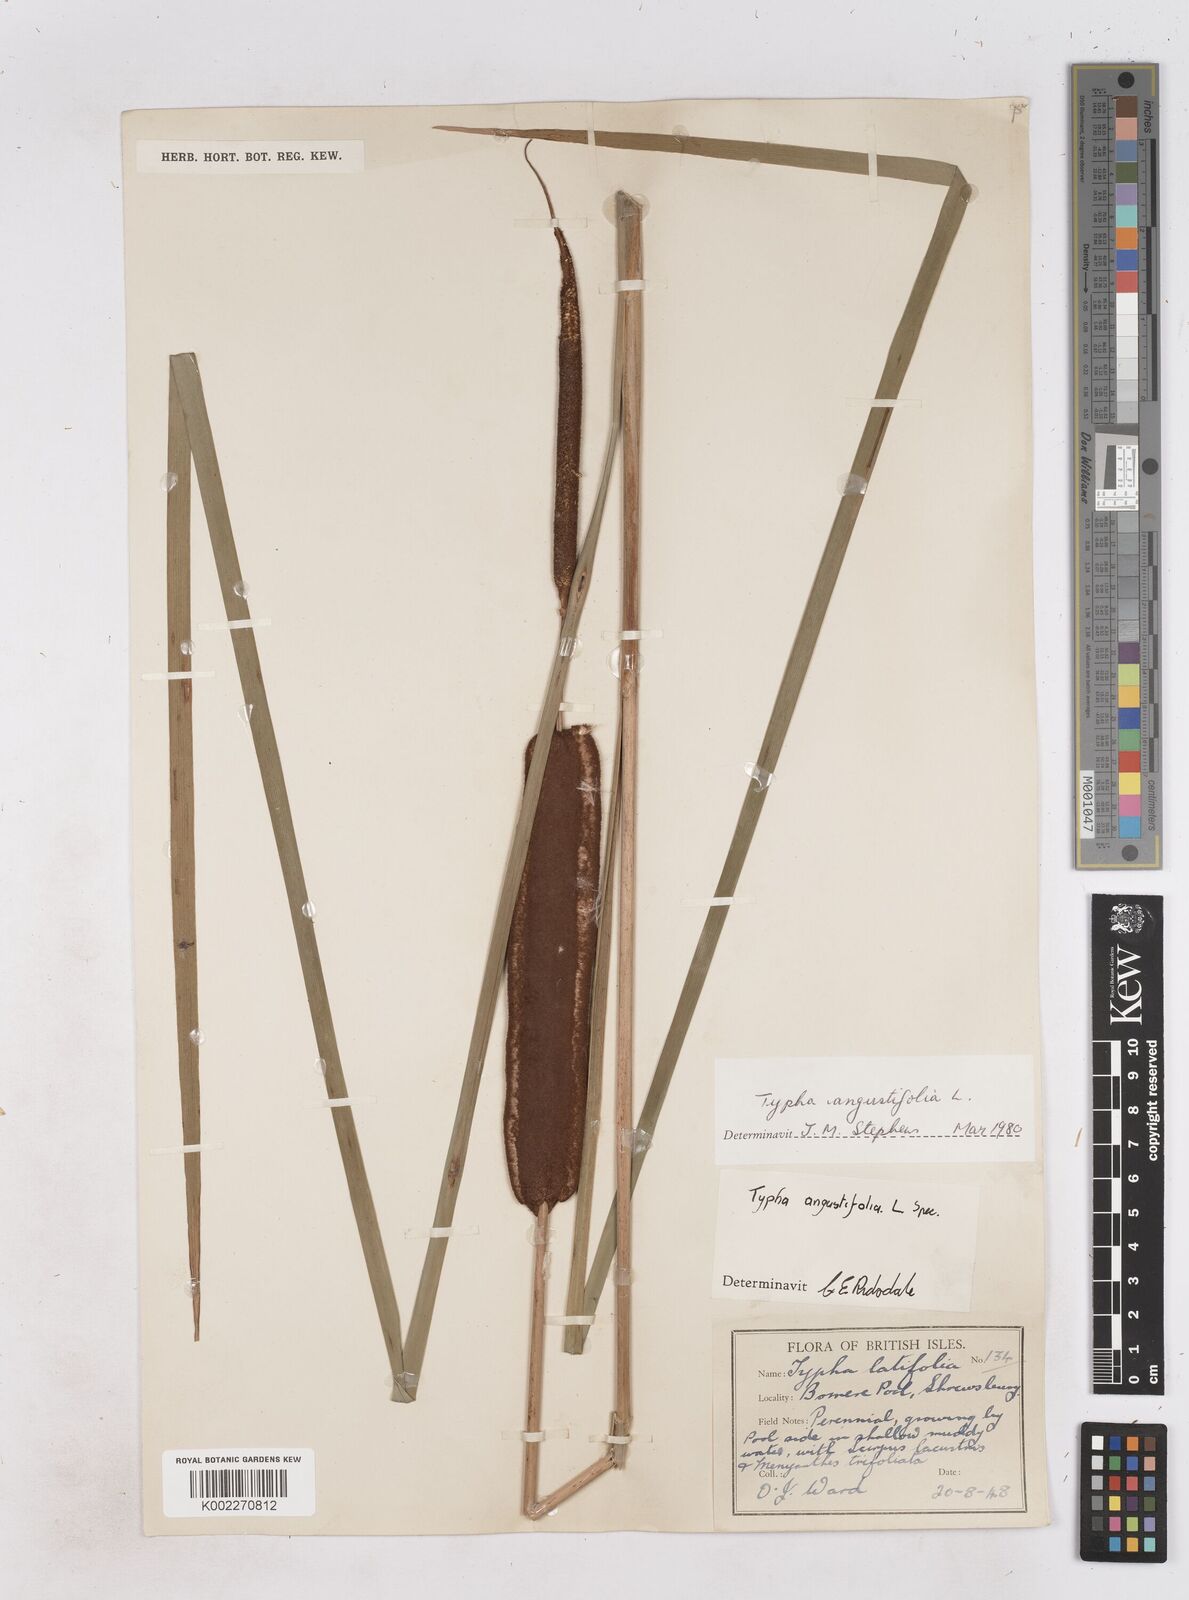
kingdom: Plantae
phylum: Tracheophyta
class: Liliopsida
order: Poales
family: Typhaceae
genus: Typha
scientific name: Typha angustifolia
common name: Lesser bulrush
